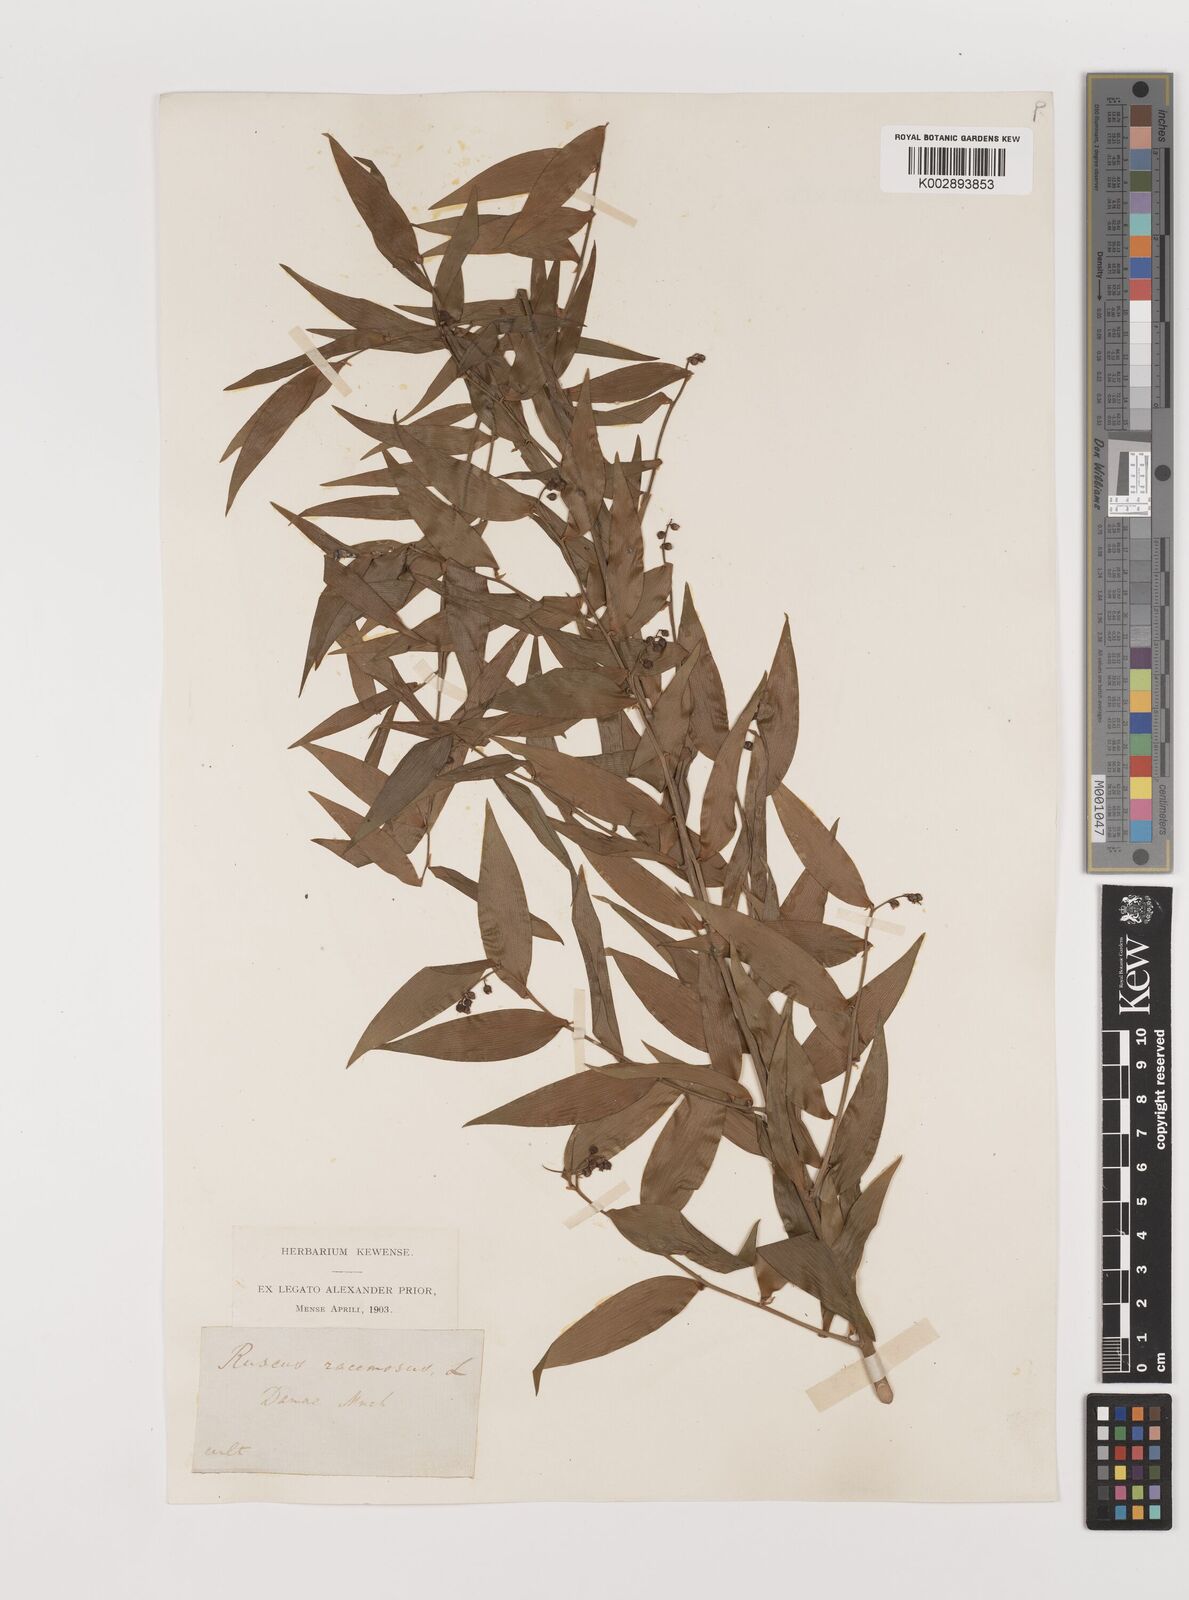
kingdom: Plantae
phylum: Tracheophyta
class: Liliopsida
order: Asparagales
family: Asparagaceae
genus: Danae
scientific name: Danae
